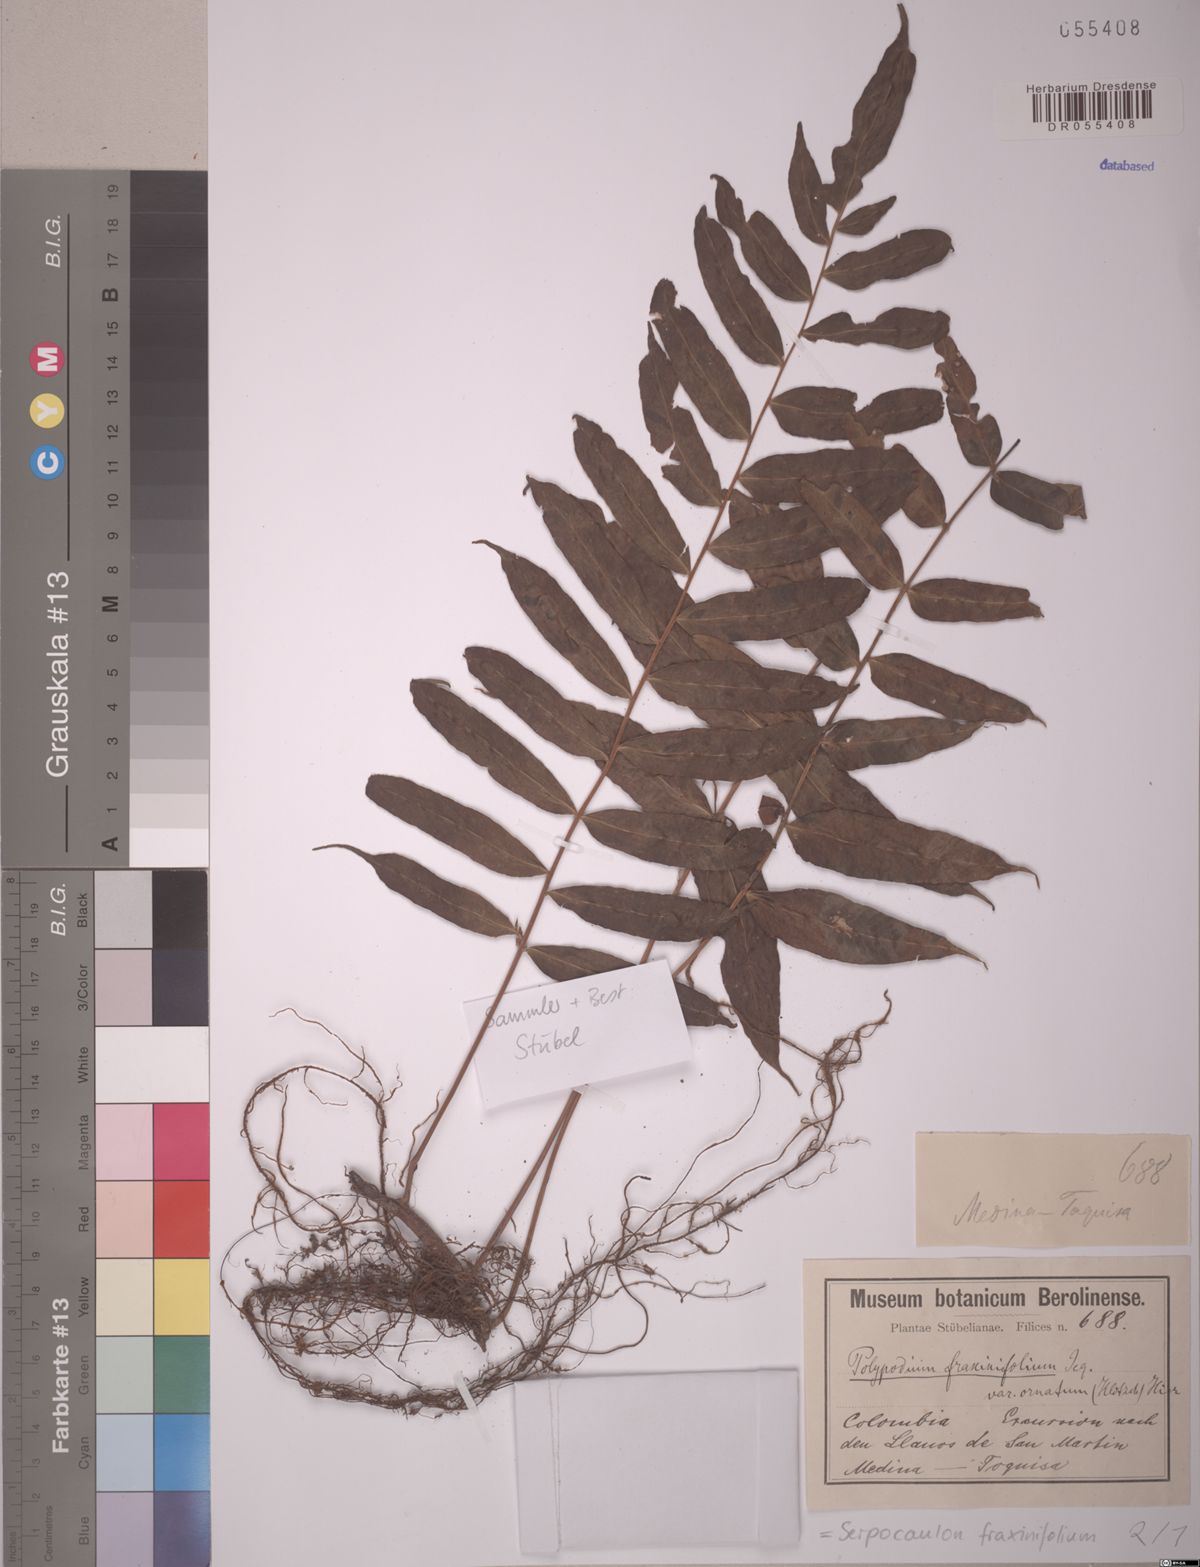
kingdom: Plantae
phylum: Tracheophyta
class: Polypodiopsida
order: Polypodiales
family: Polypodiaceae
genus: Serpocaulon
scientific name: Serpocaulon fraxinifolium
